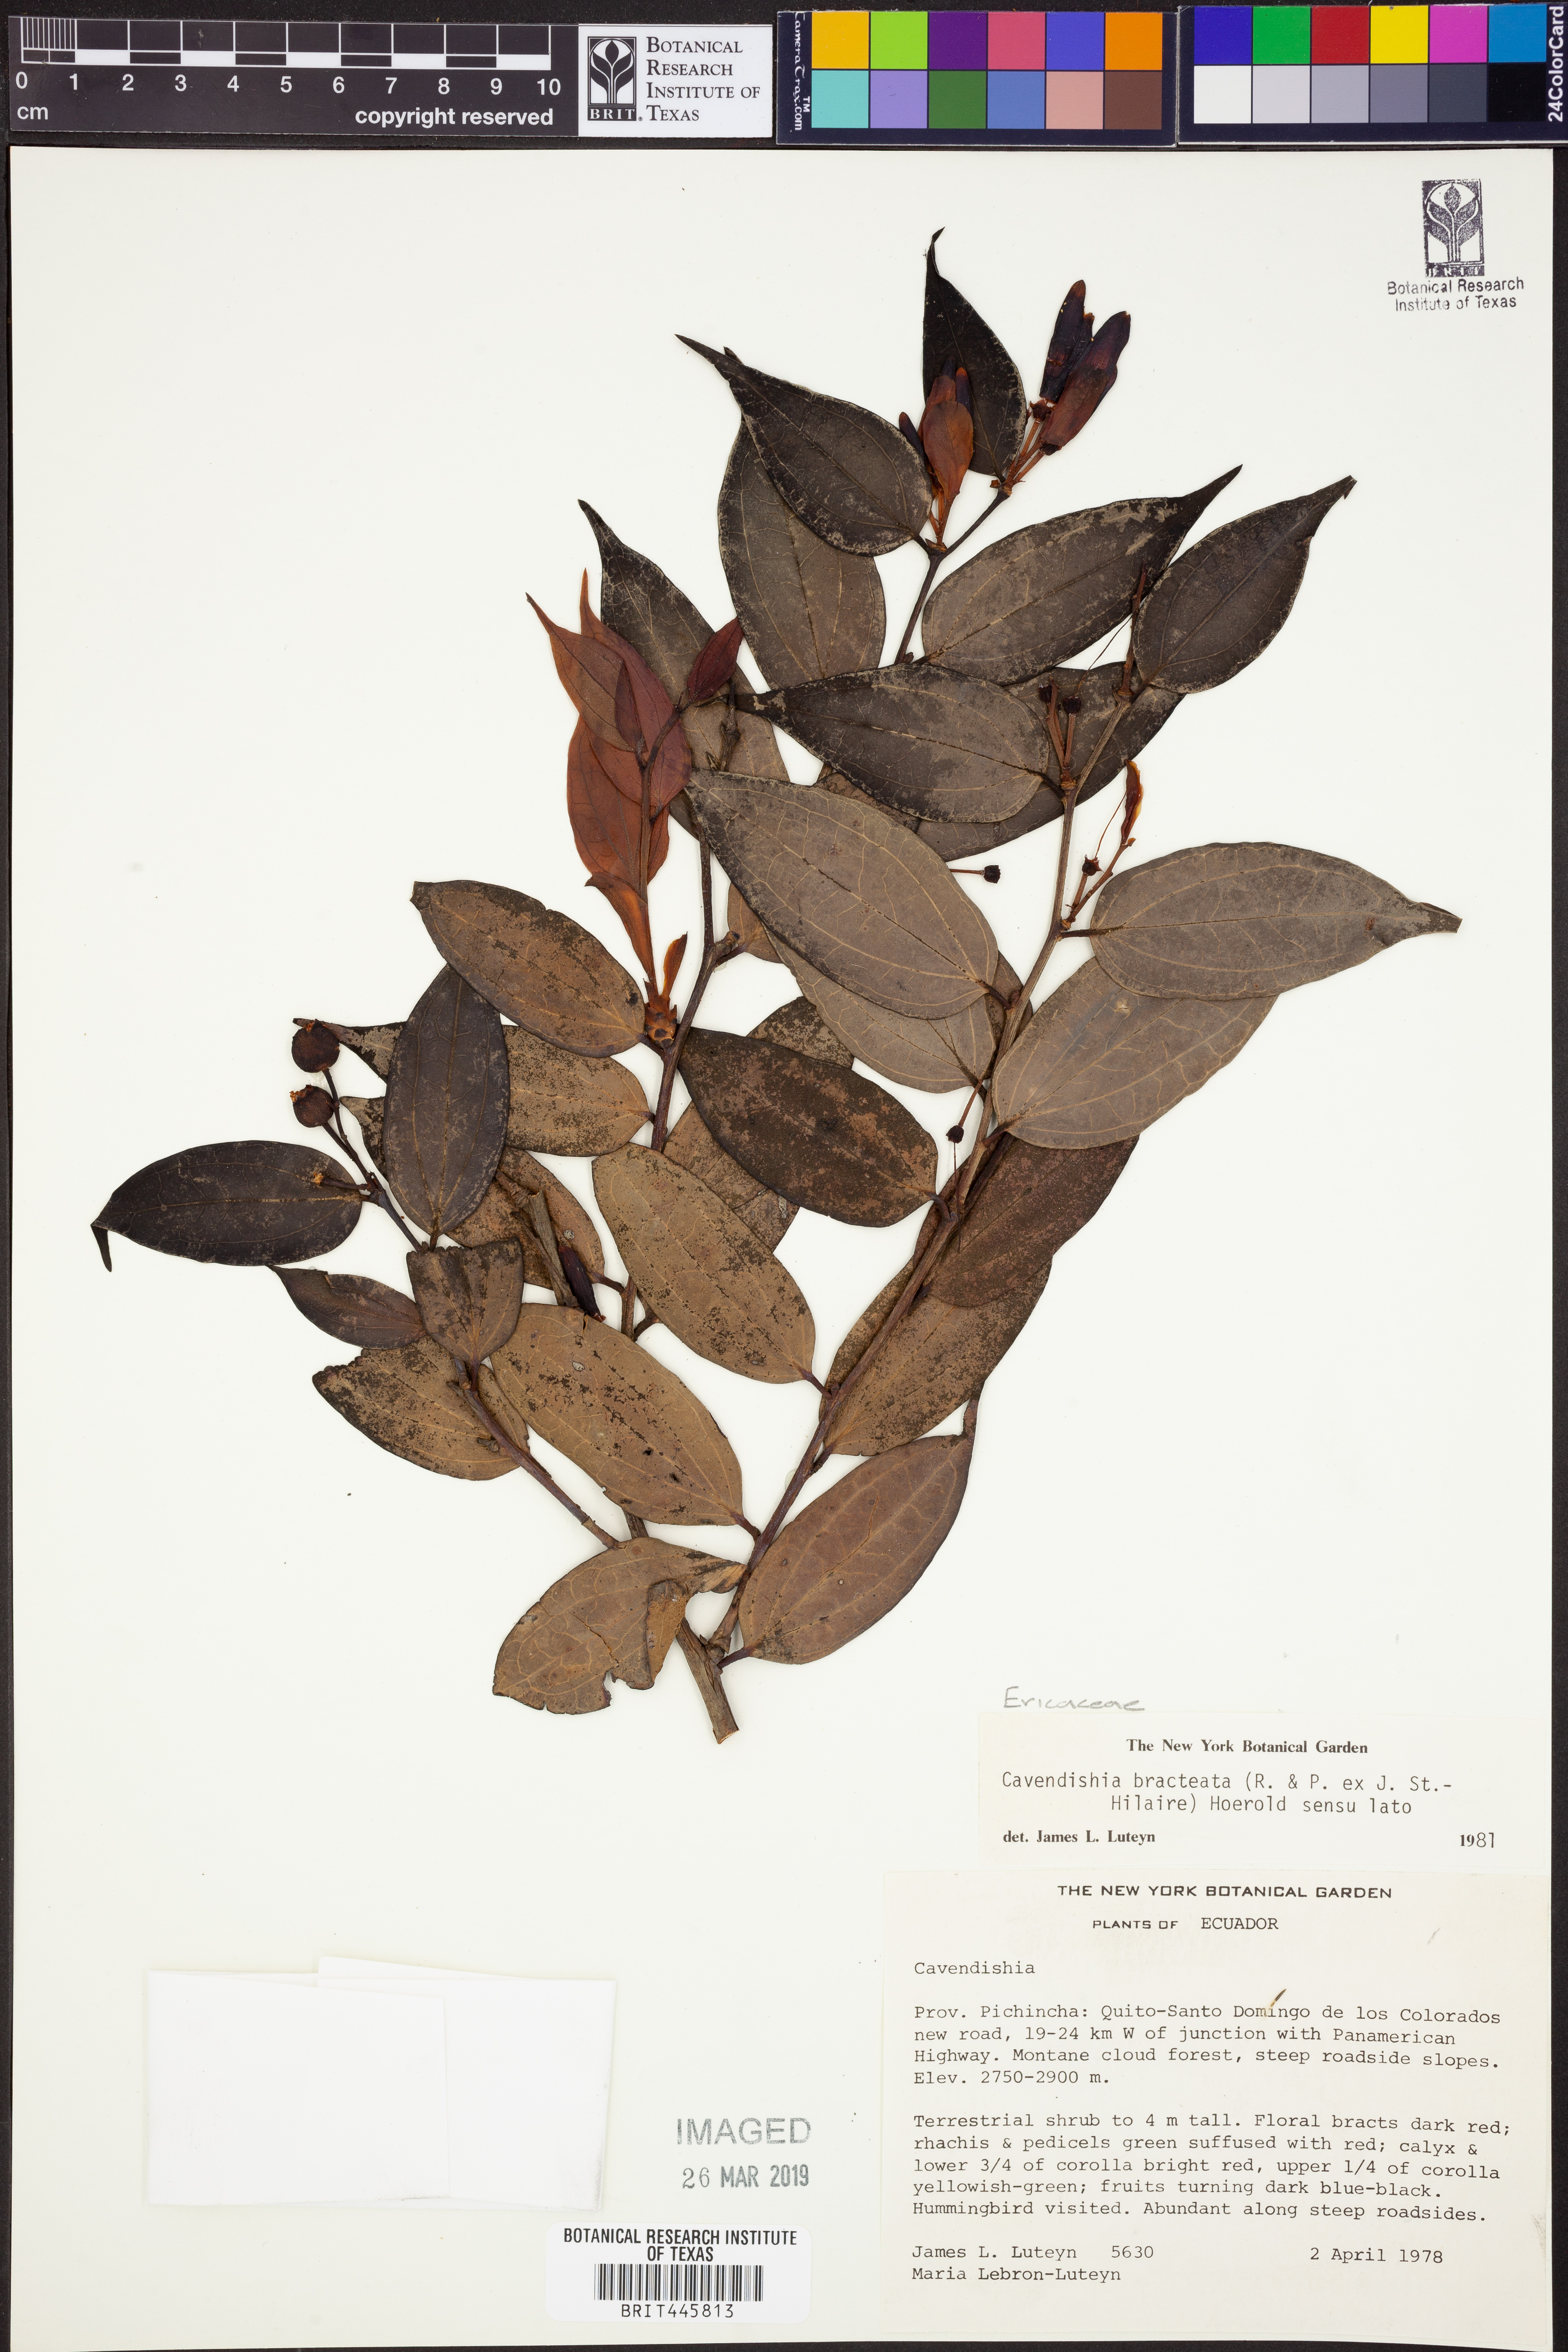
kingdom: Plantae
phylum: Tracheophyta
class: Magnoliopsida
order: Ericales
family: Ericaceae
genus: Cavendishia
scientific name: Cavendishia bracteata
